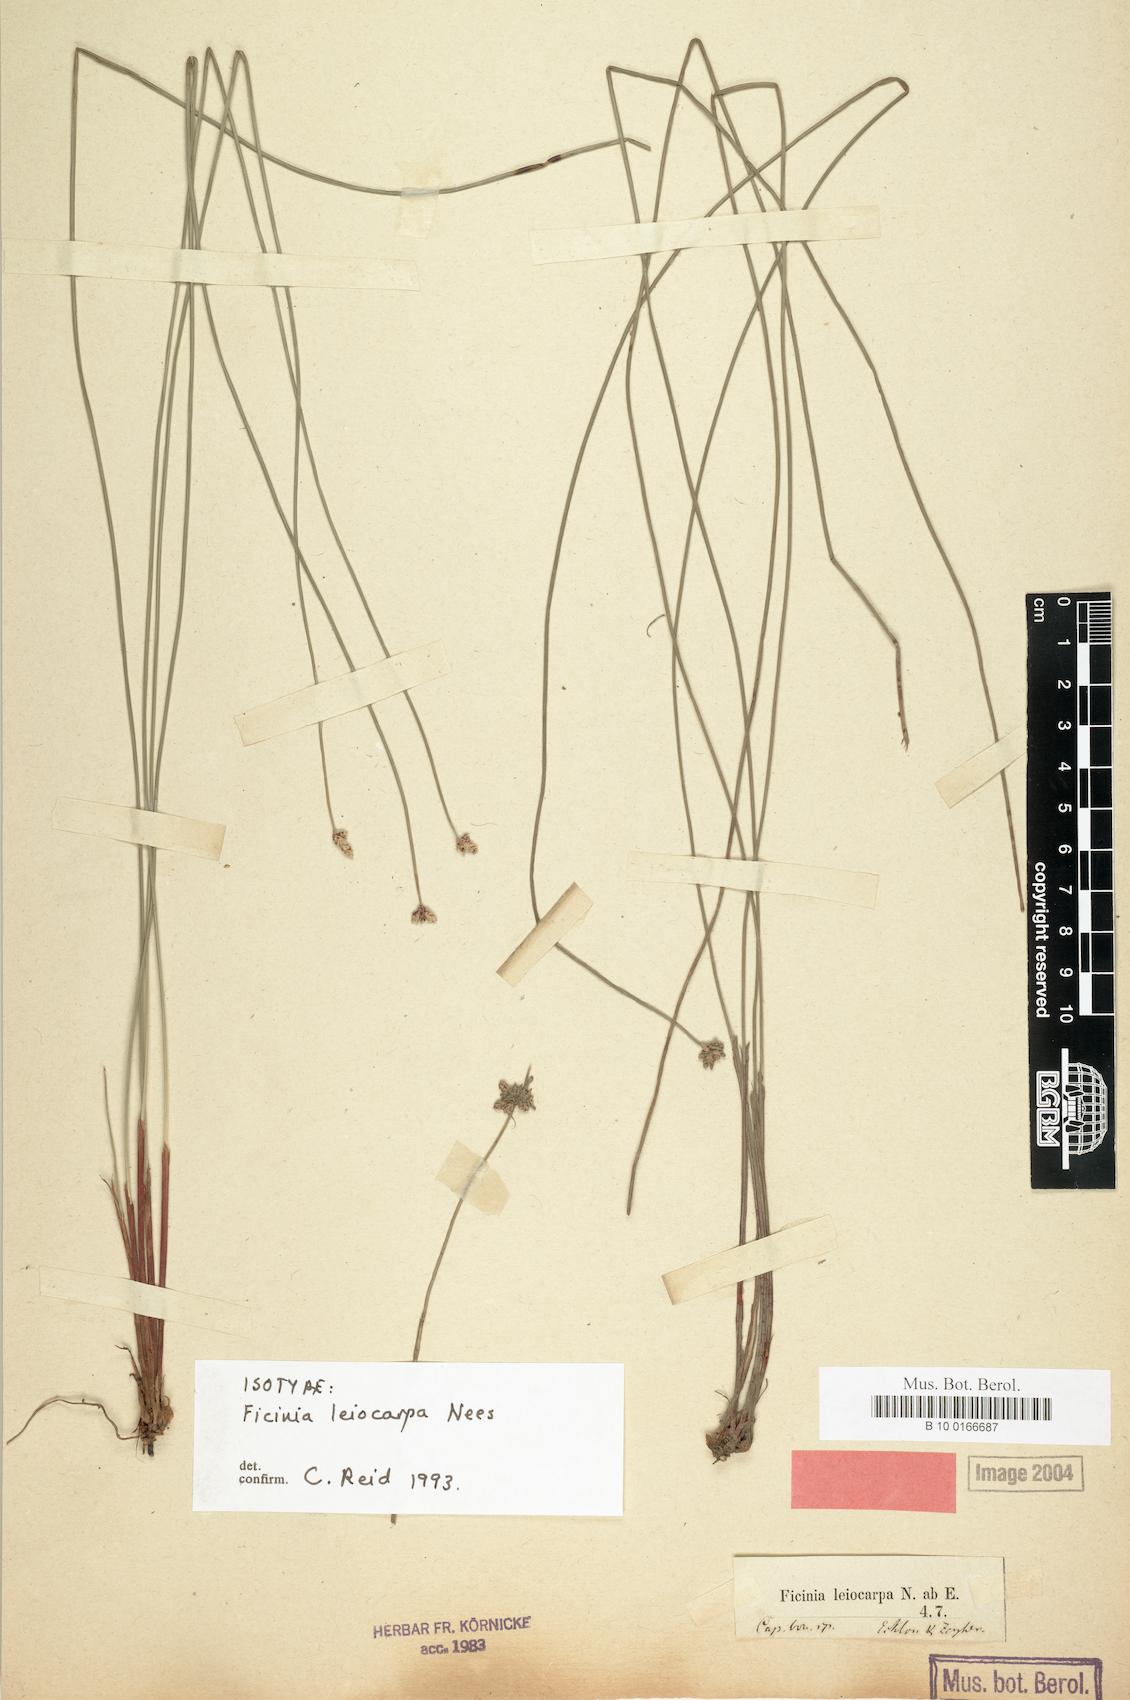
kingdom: Plantae
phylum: Tracheophyta
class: Liliopsida
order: Poales
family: Cyperaceae
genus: Ficinia
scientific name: Ficinia leiocarpa
